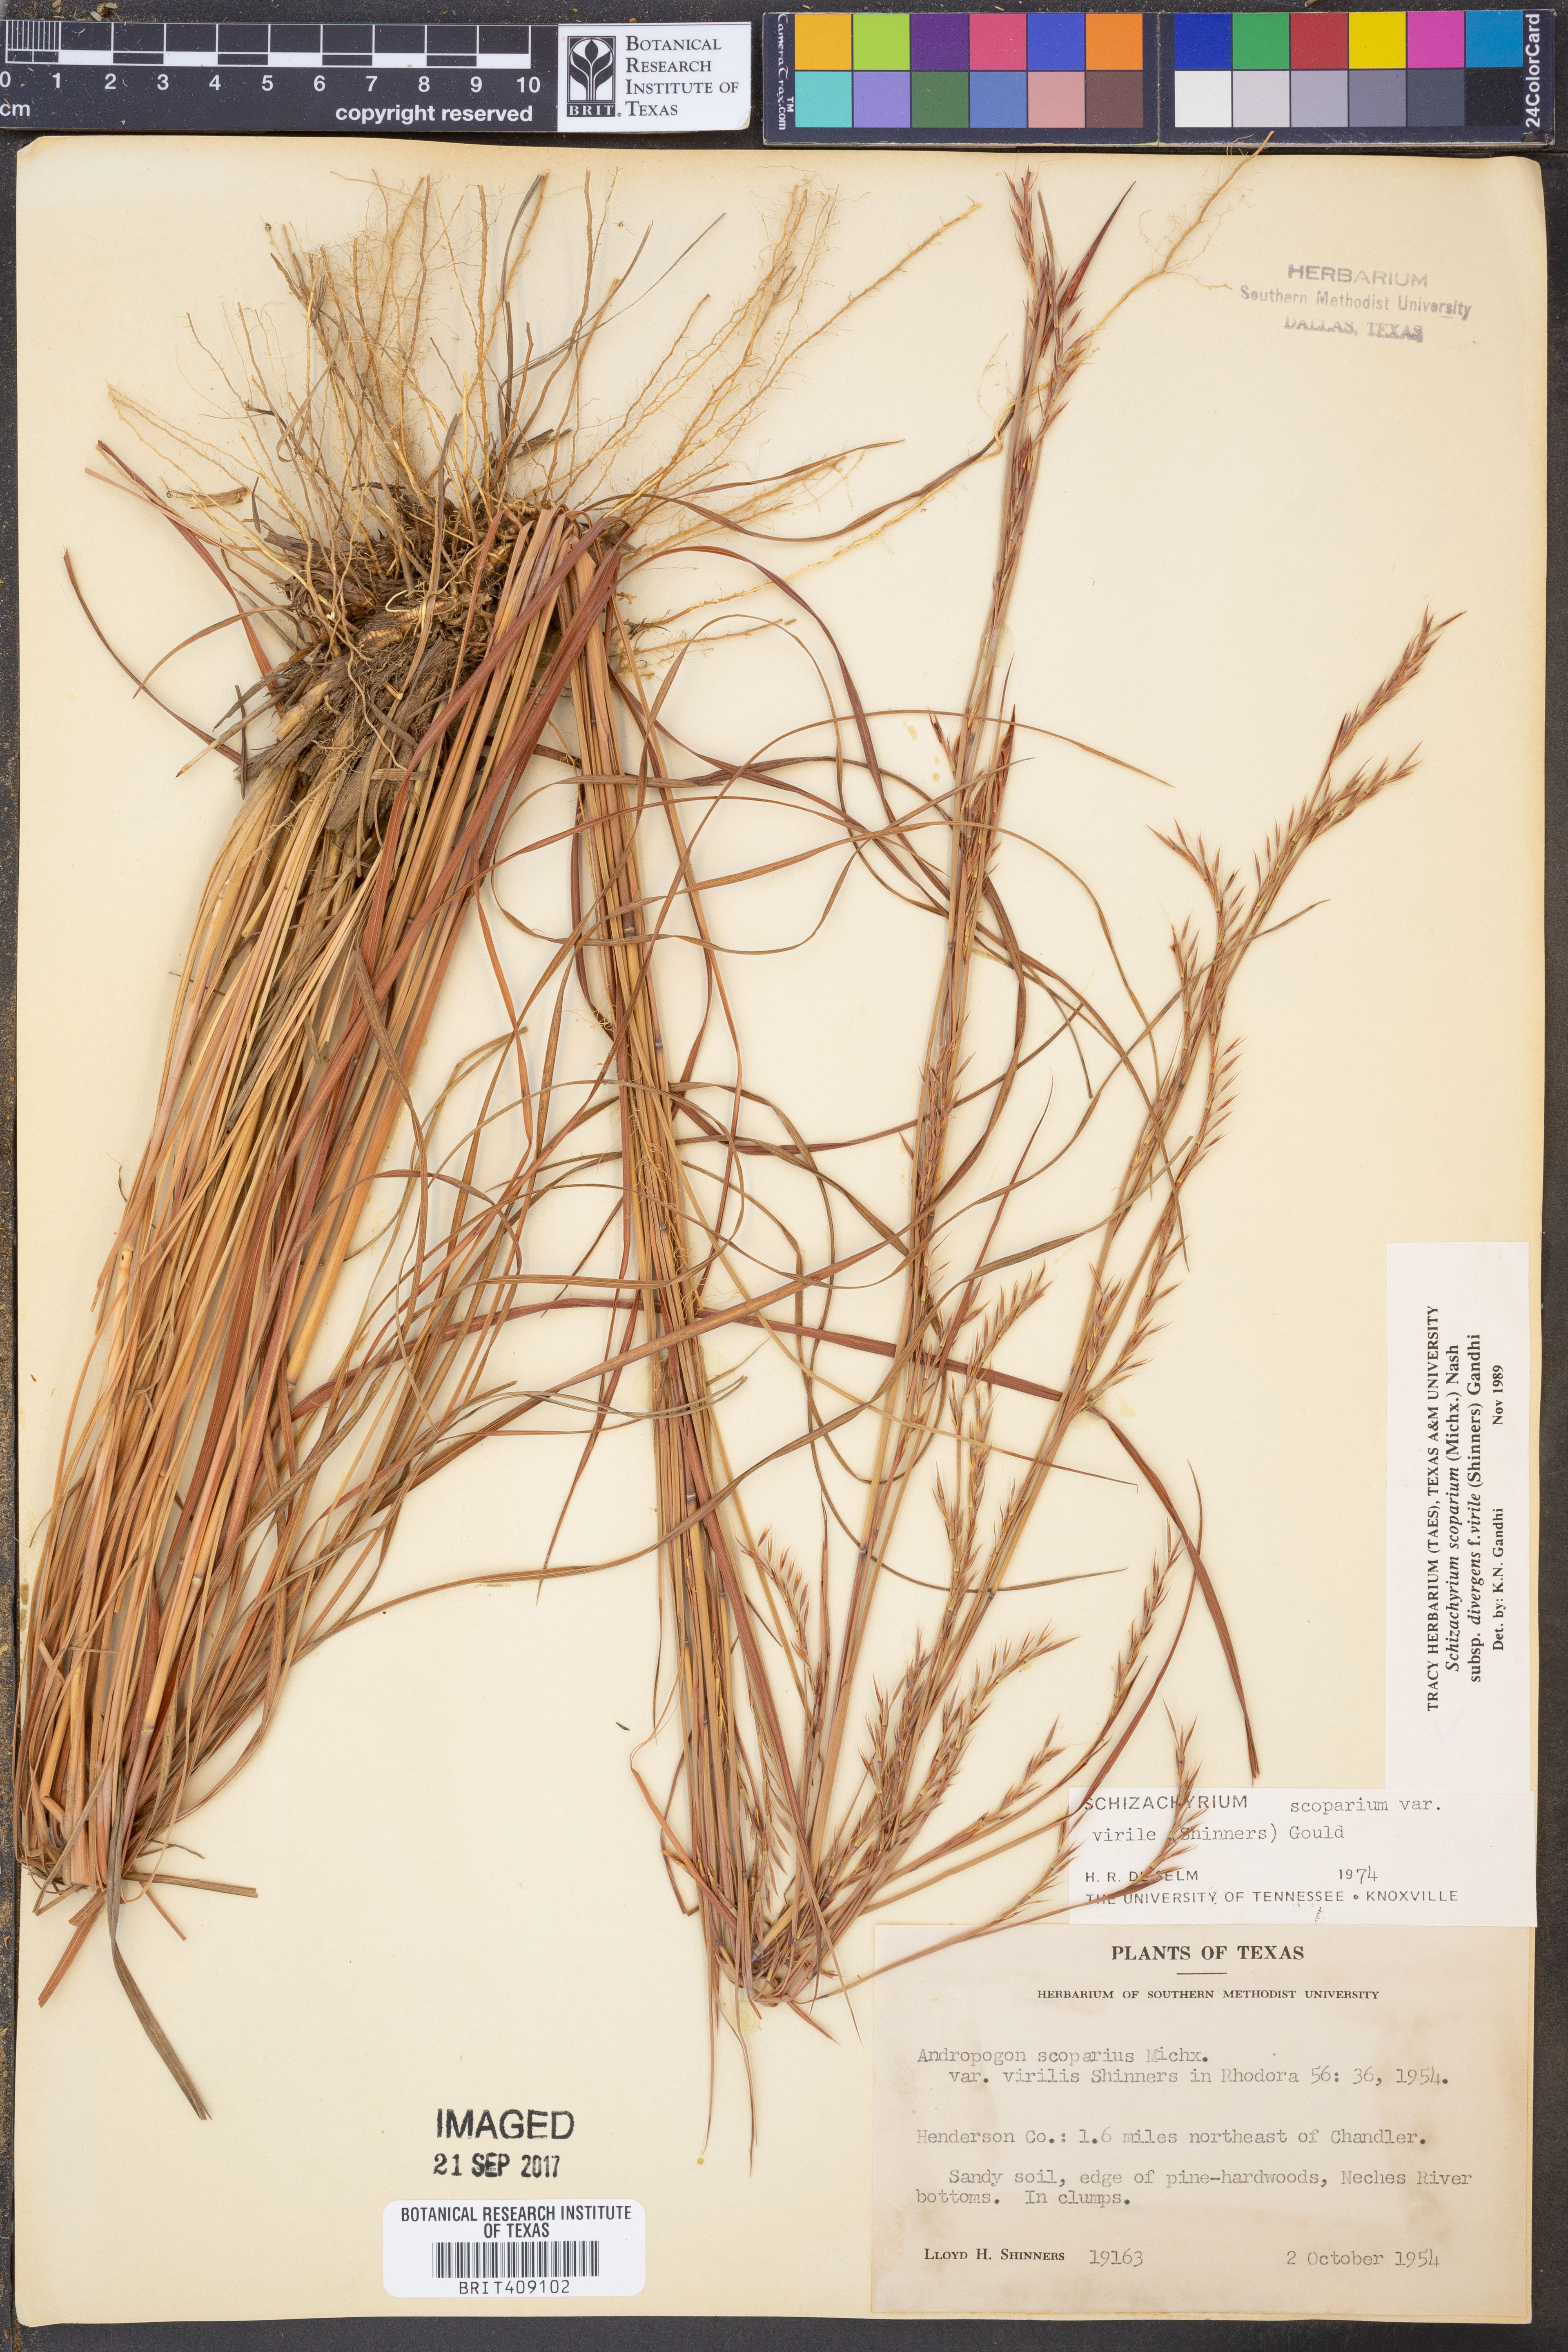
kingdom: Plantae
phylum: Tracheophyta
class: Liliopsida
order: Poales
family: Poaceae
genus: Schizachyrium
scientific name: Schizachyrium scoparium
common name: Little bluestem
